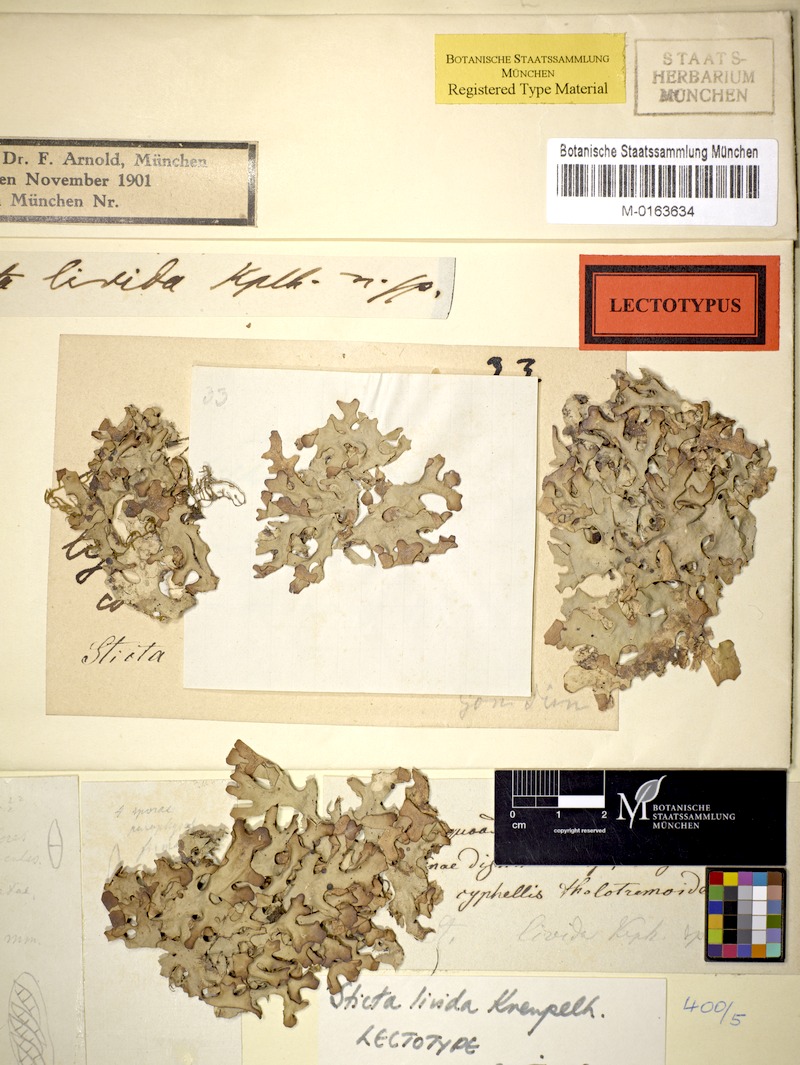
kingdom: Fungi
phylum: Ascomycota
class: Lecanoromycetes
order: Peltigerales
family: Lobariaceae
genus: Sticta
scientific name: Sticta
